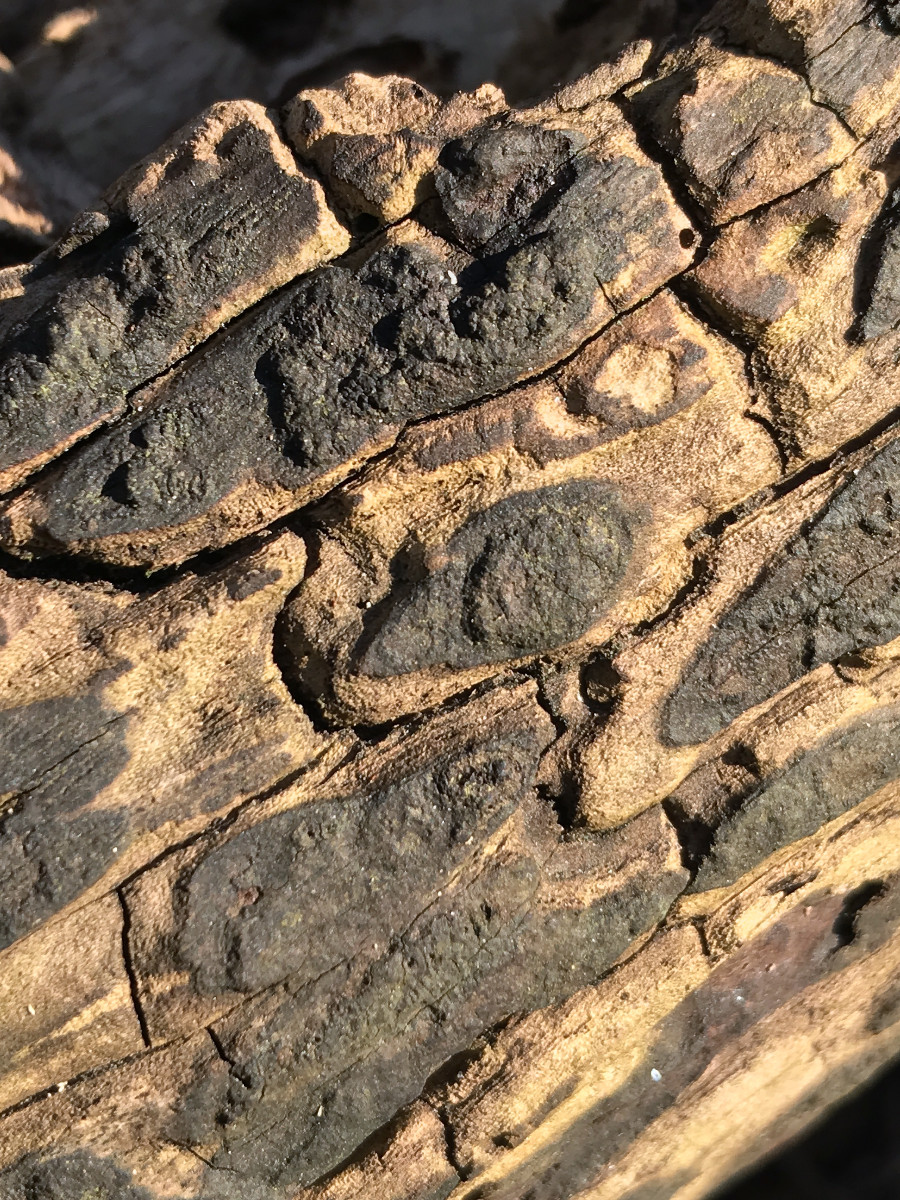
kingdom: Fungi
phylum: Ascomycota
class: Sordariomycetes
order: Xylariales
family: Hypoxylaceae
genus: Hypoxylon
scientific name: Hypoxylon
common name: kulbær
